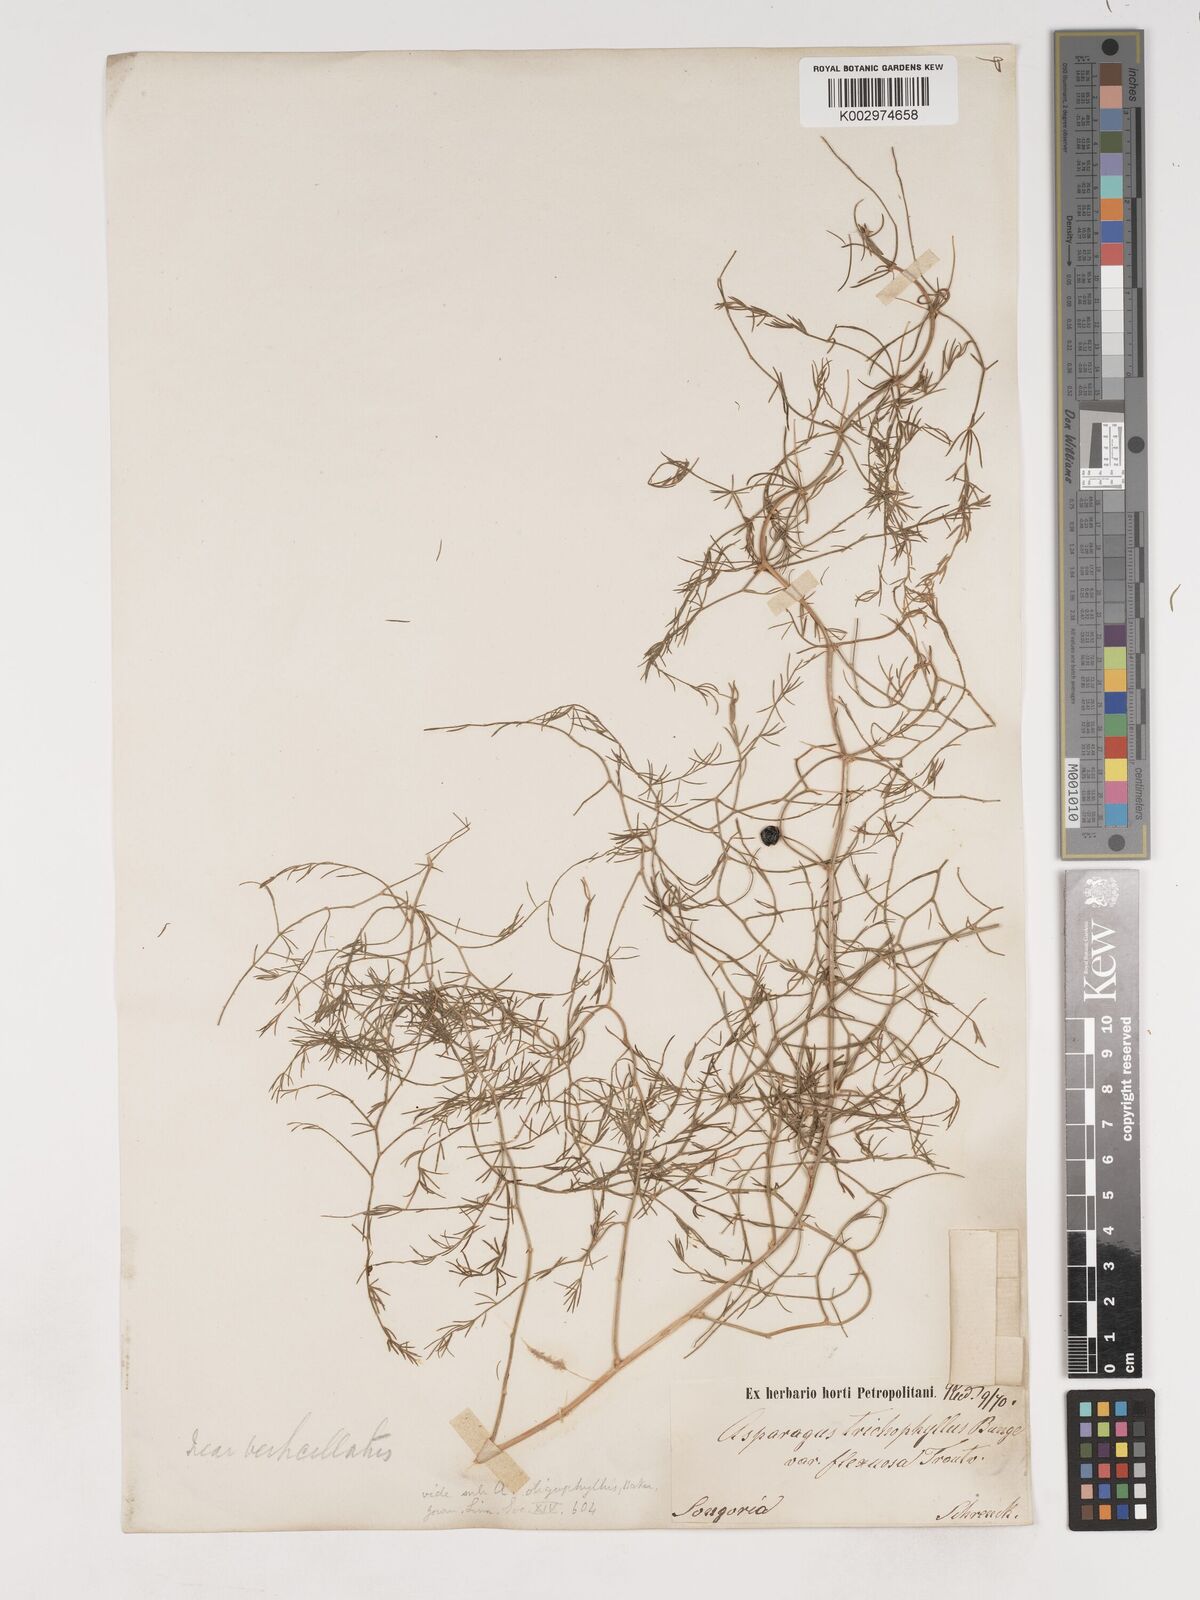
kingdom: Plantae
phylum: Tracheophyta
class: Liliopsida
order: Asparagales
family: Asparagaceae
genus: Asparagus
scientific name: Asparagus persicus
